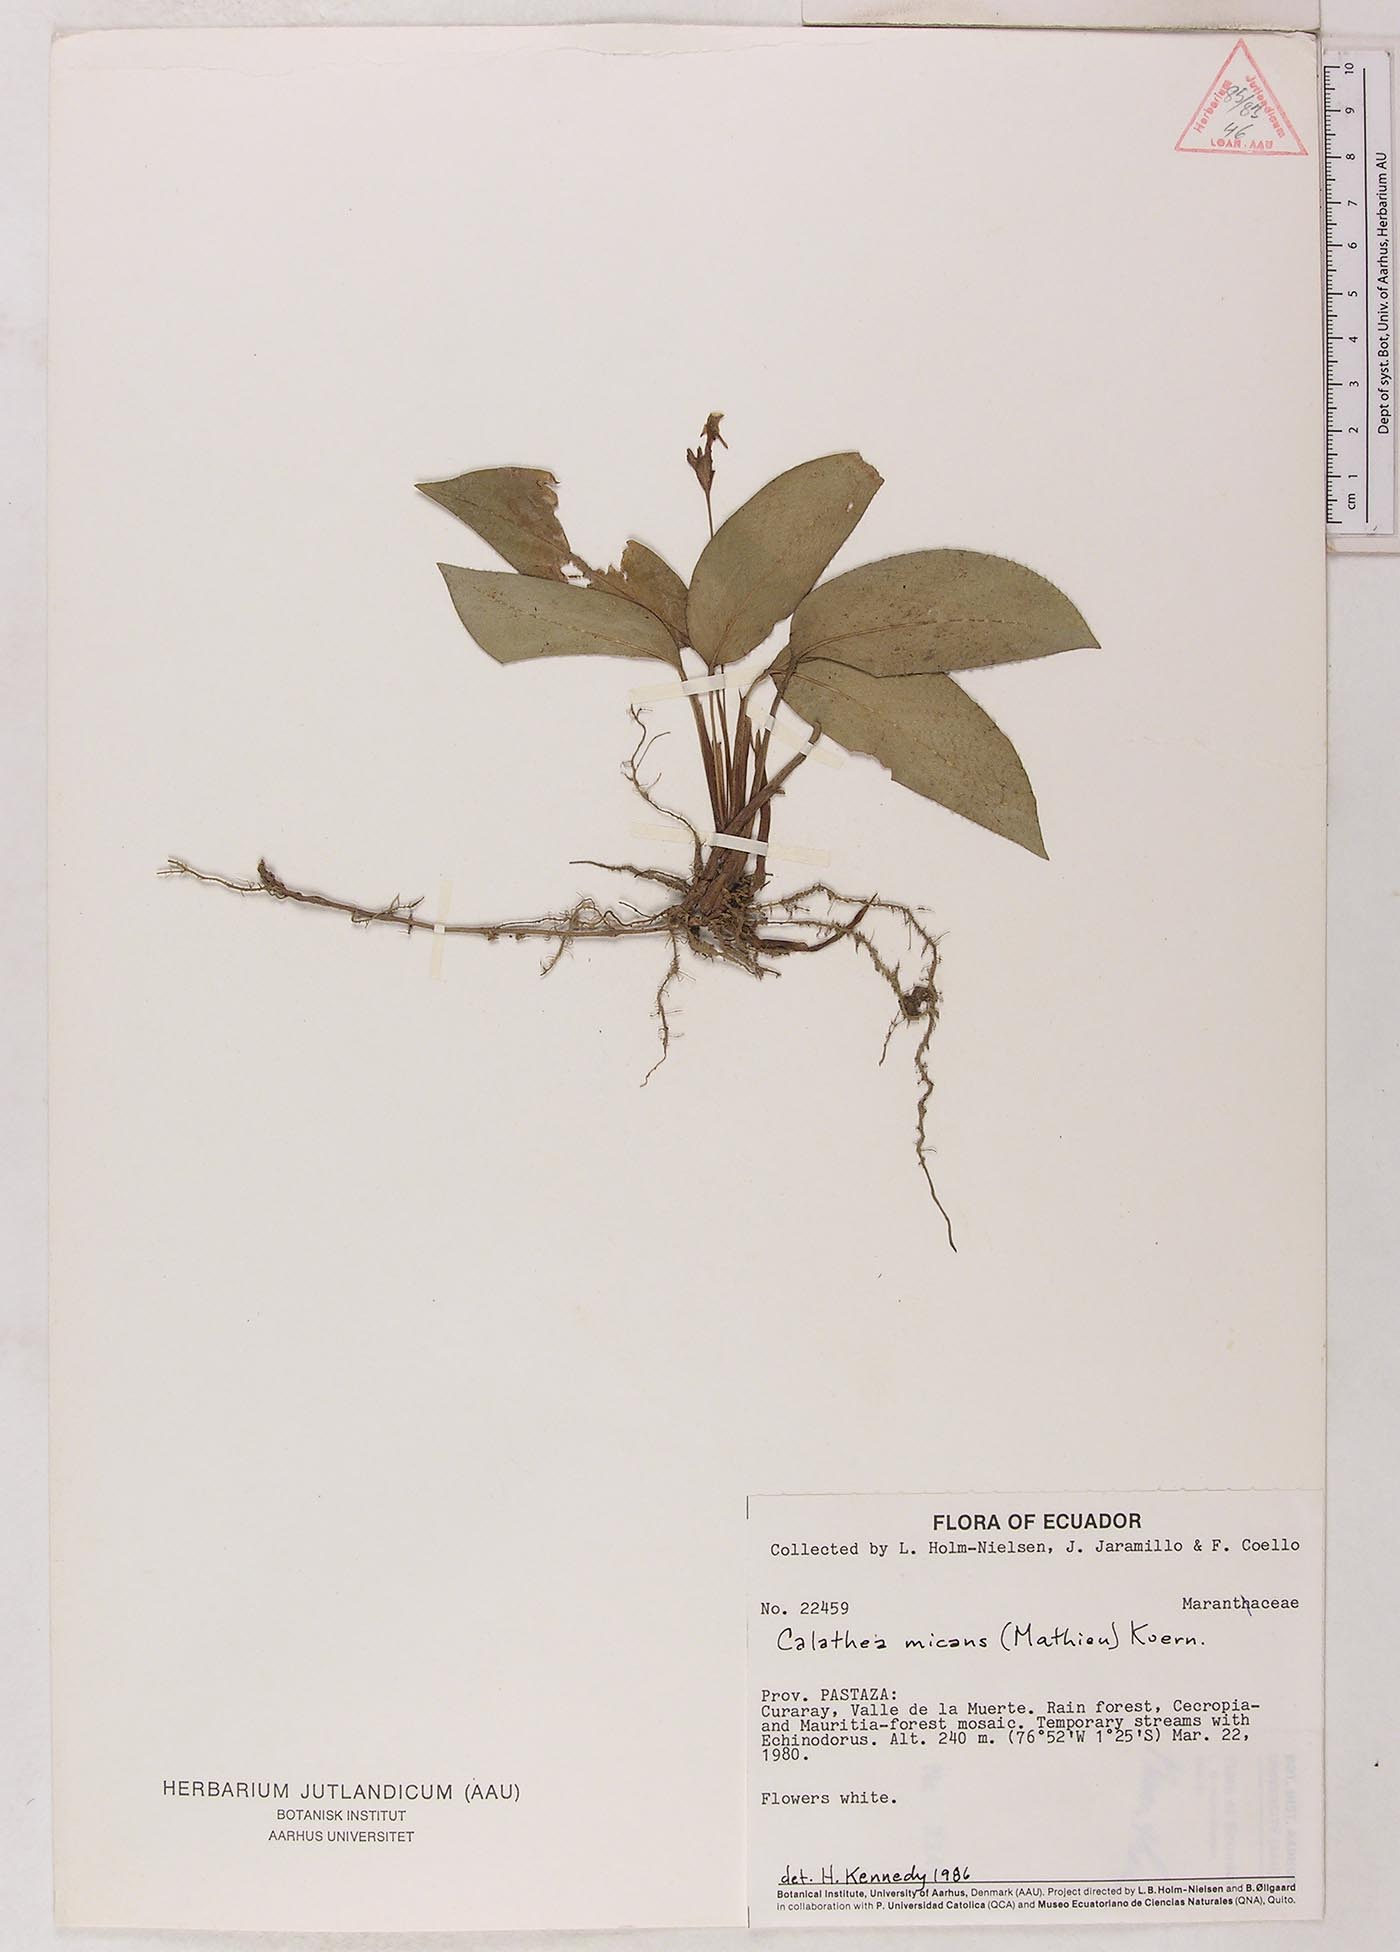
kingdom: Plantae
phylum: Tracheophyta
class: Liliopsida
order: Zingiberales
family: Marantaceae
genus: Goeppertia
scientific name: Goeppertia micans
